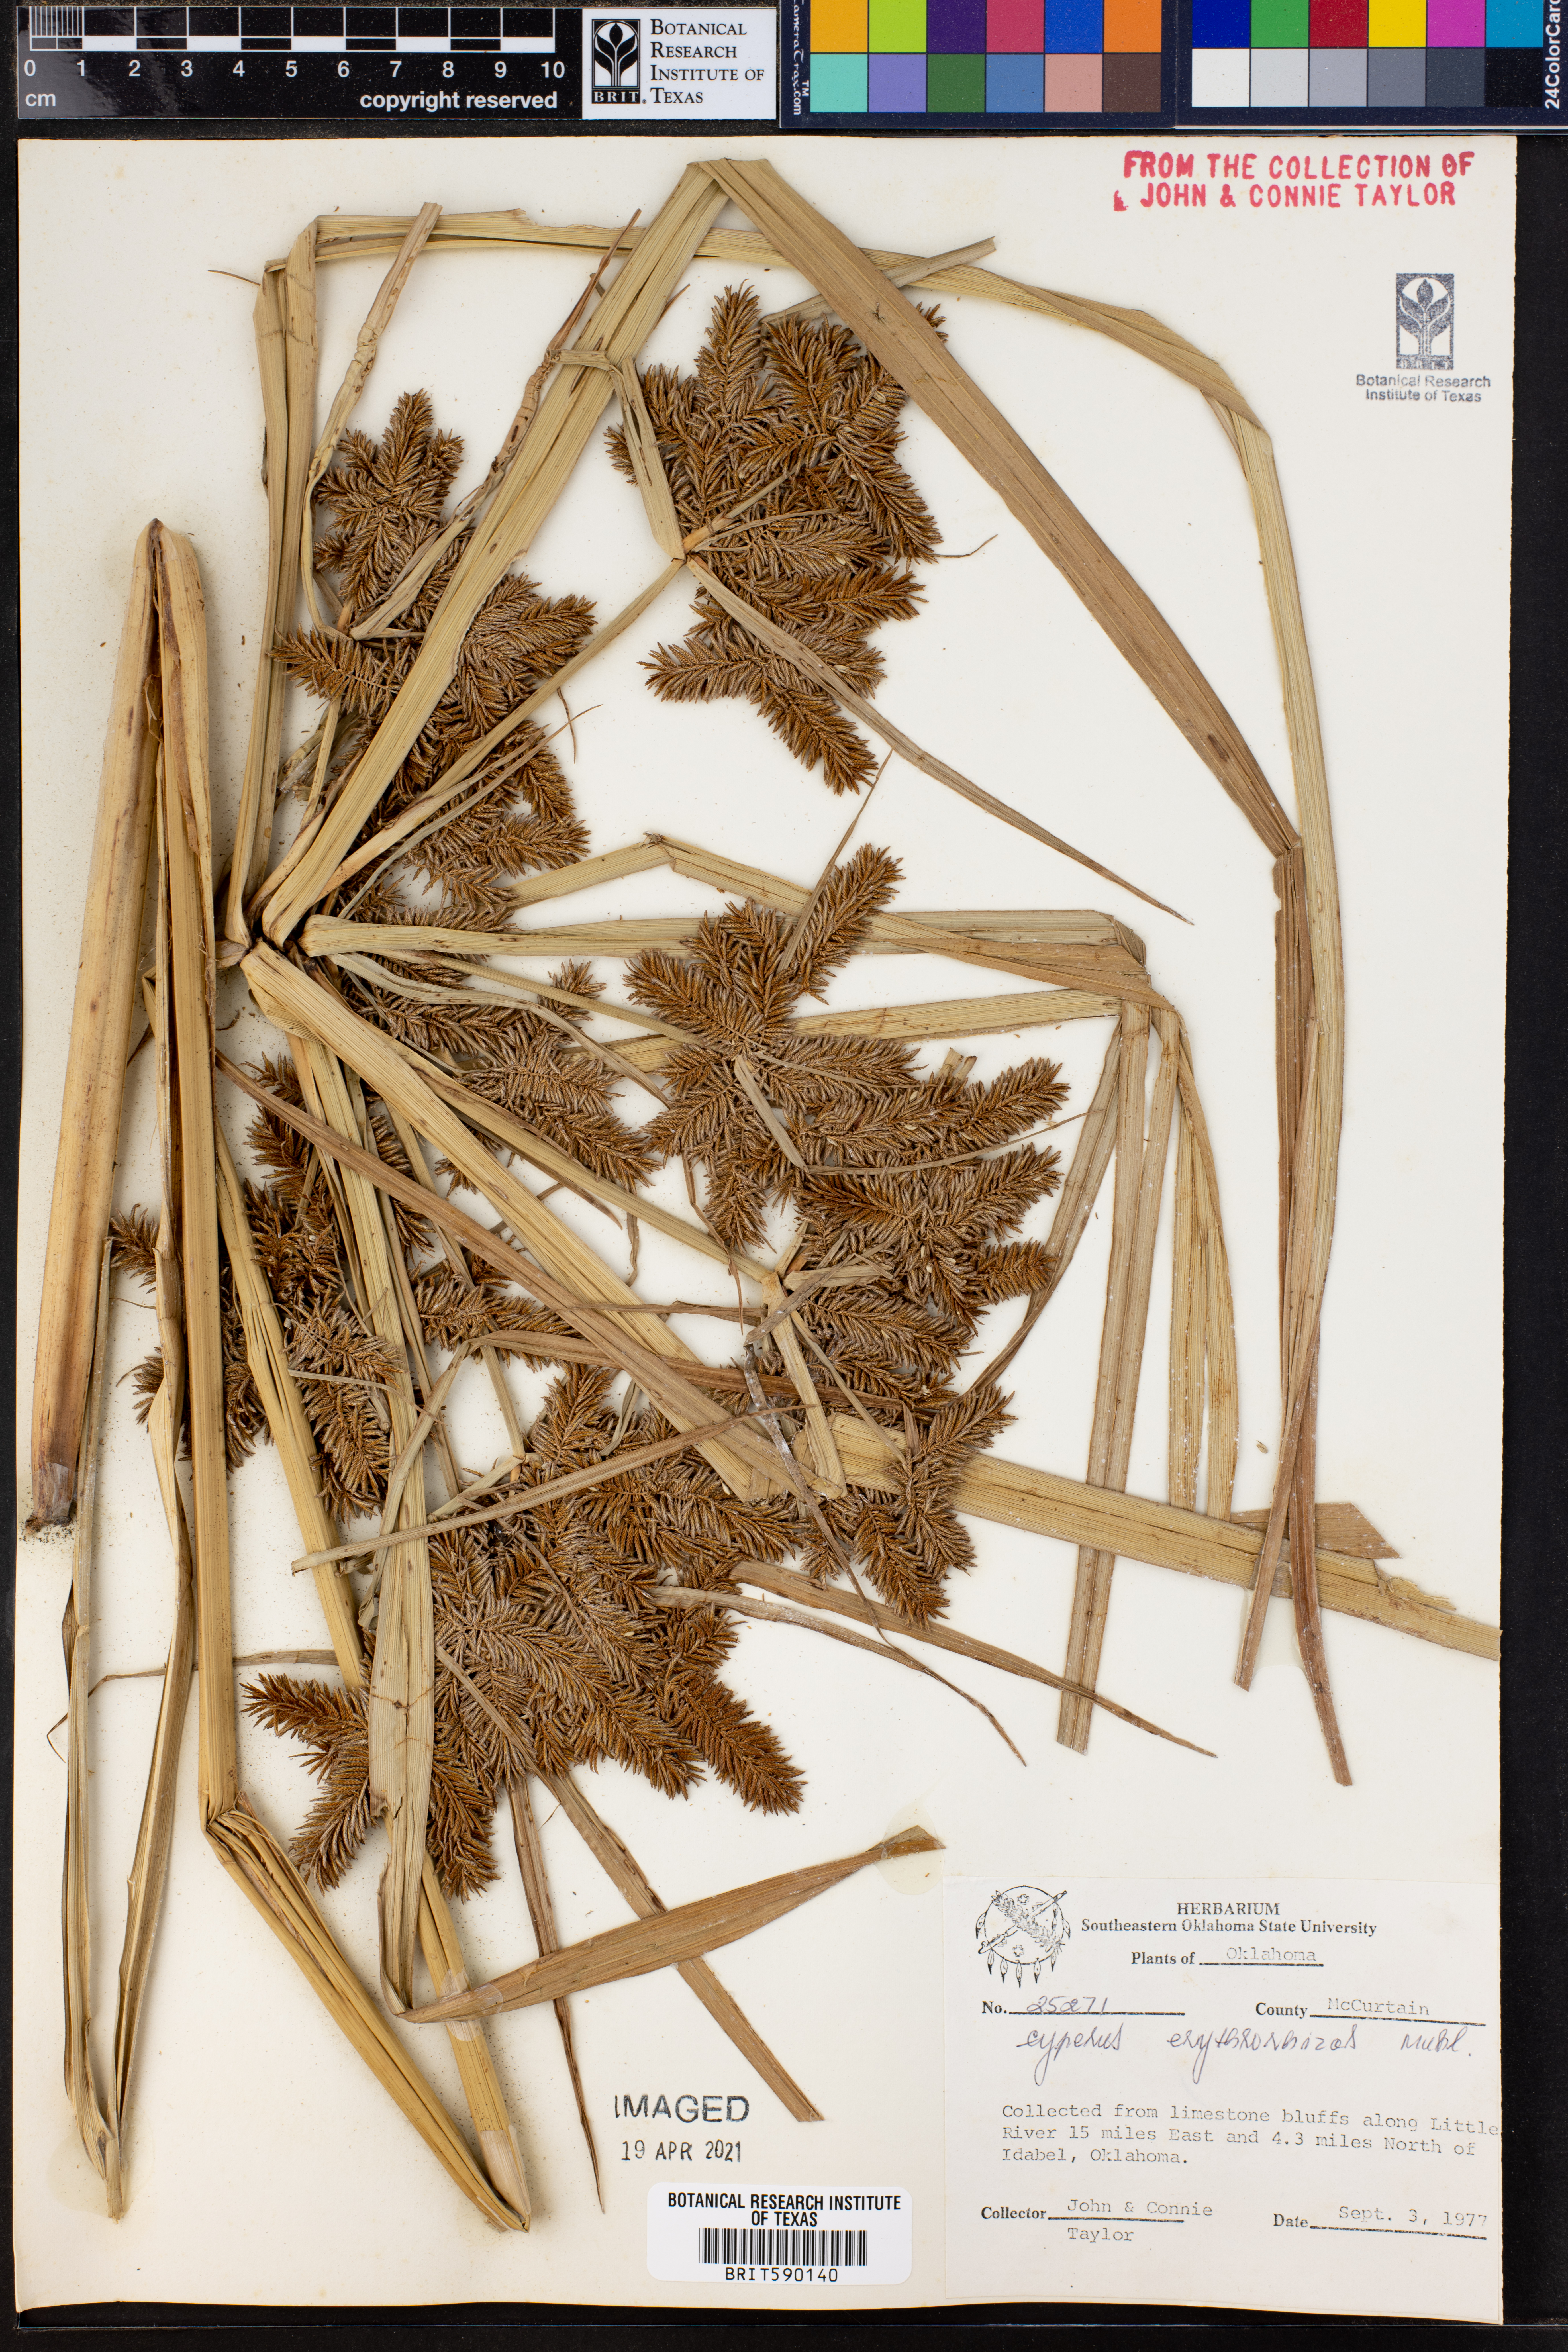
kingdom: Plantae
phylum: Tracheophyta
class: Liliopsida
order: Poales
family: Cyperaceae
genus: Cyperus
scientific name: Cyperus erythrorhizos
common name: Red-root flat sedge
